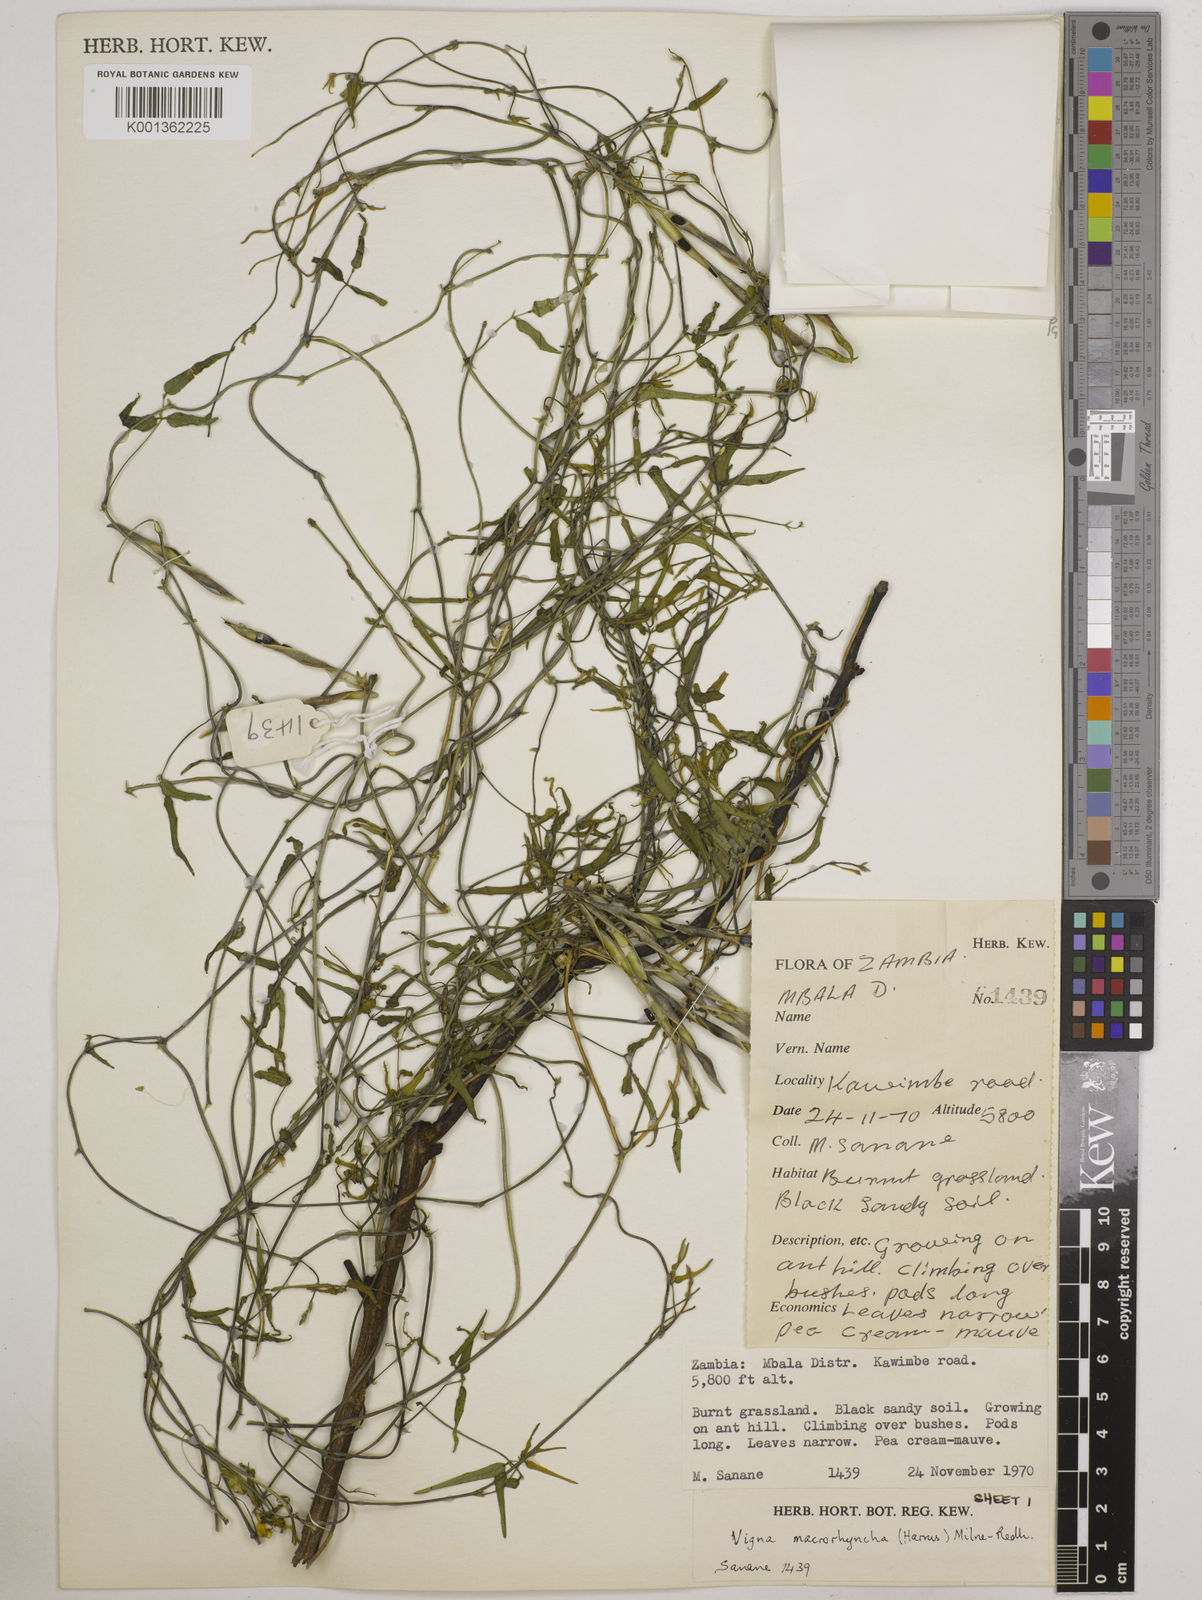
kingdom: Plantae
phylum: Tracheophyta
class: Magnoliopsida
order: Fabales
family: Fabaceae
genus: Wajira
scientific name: Wajira grahamiana
